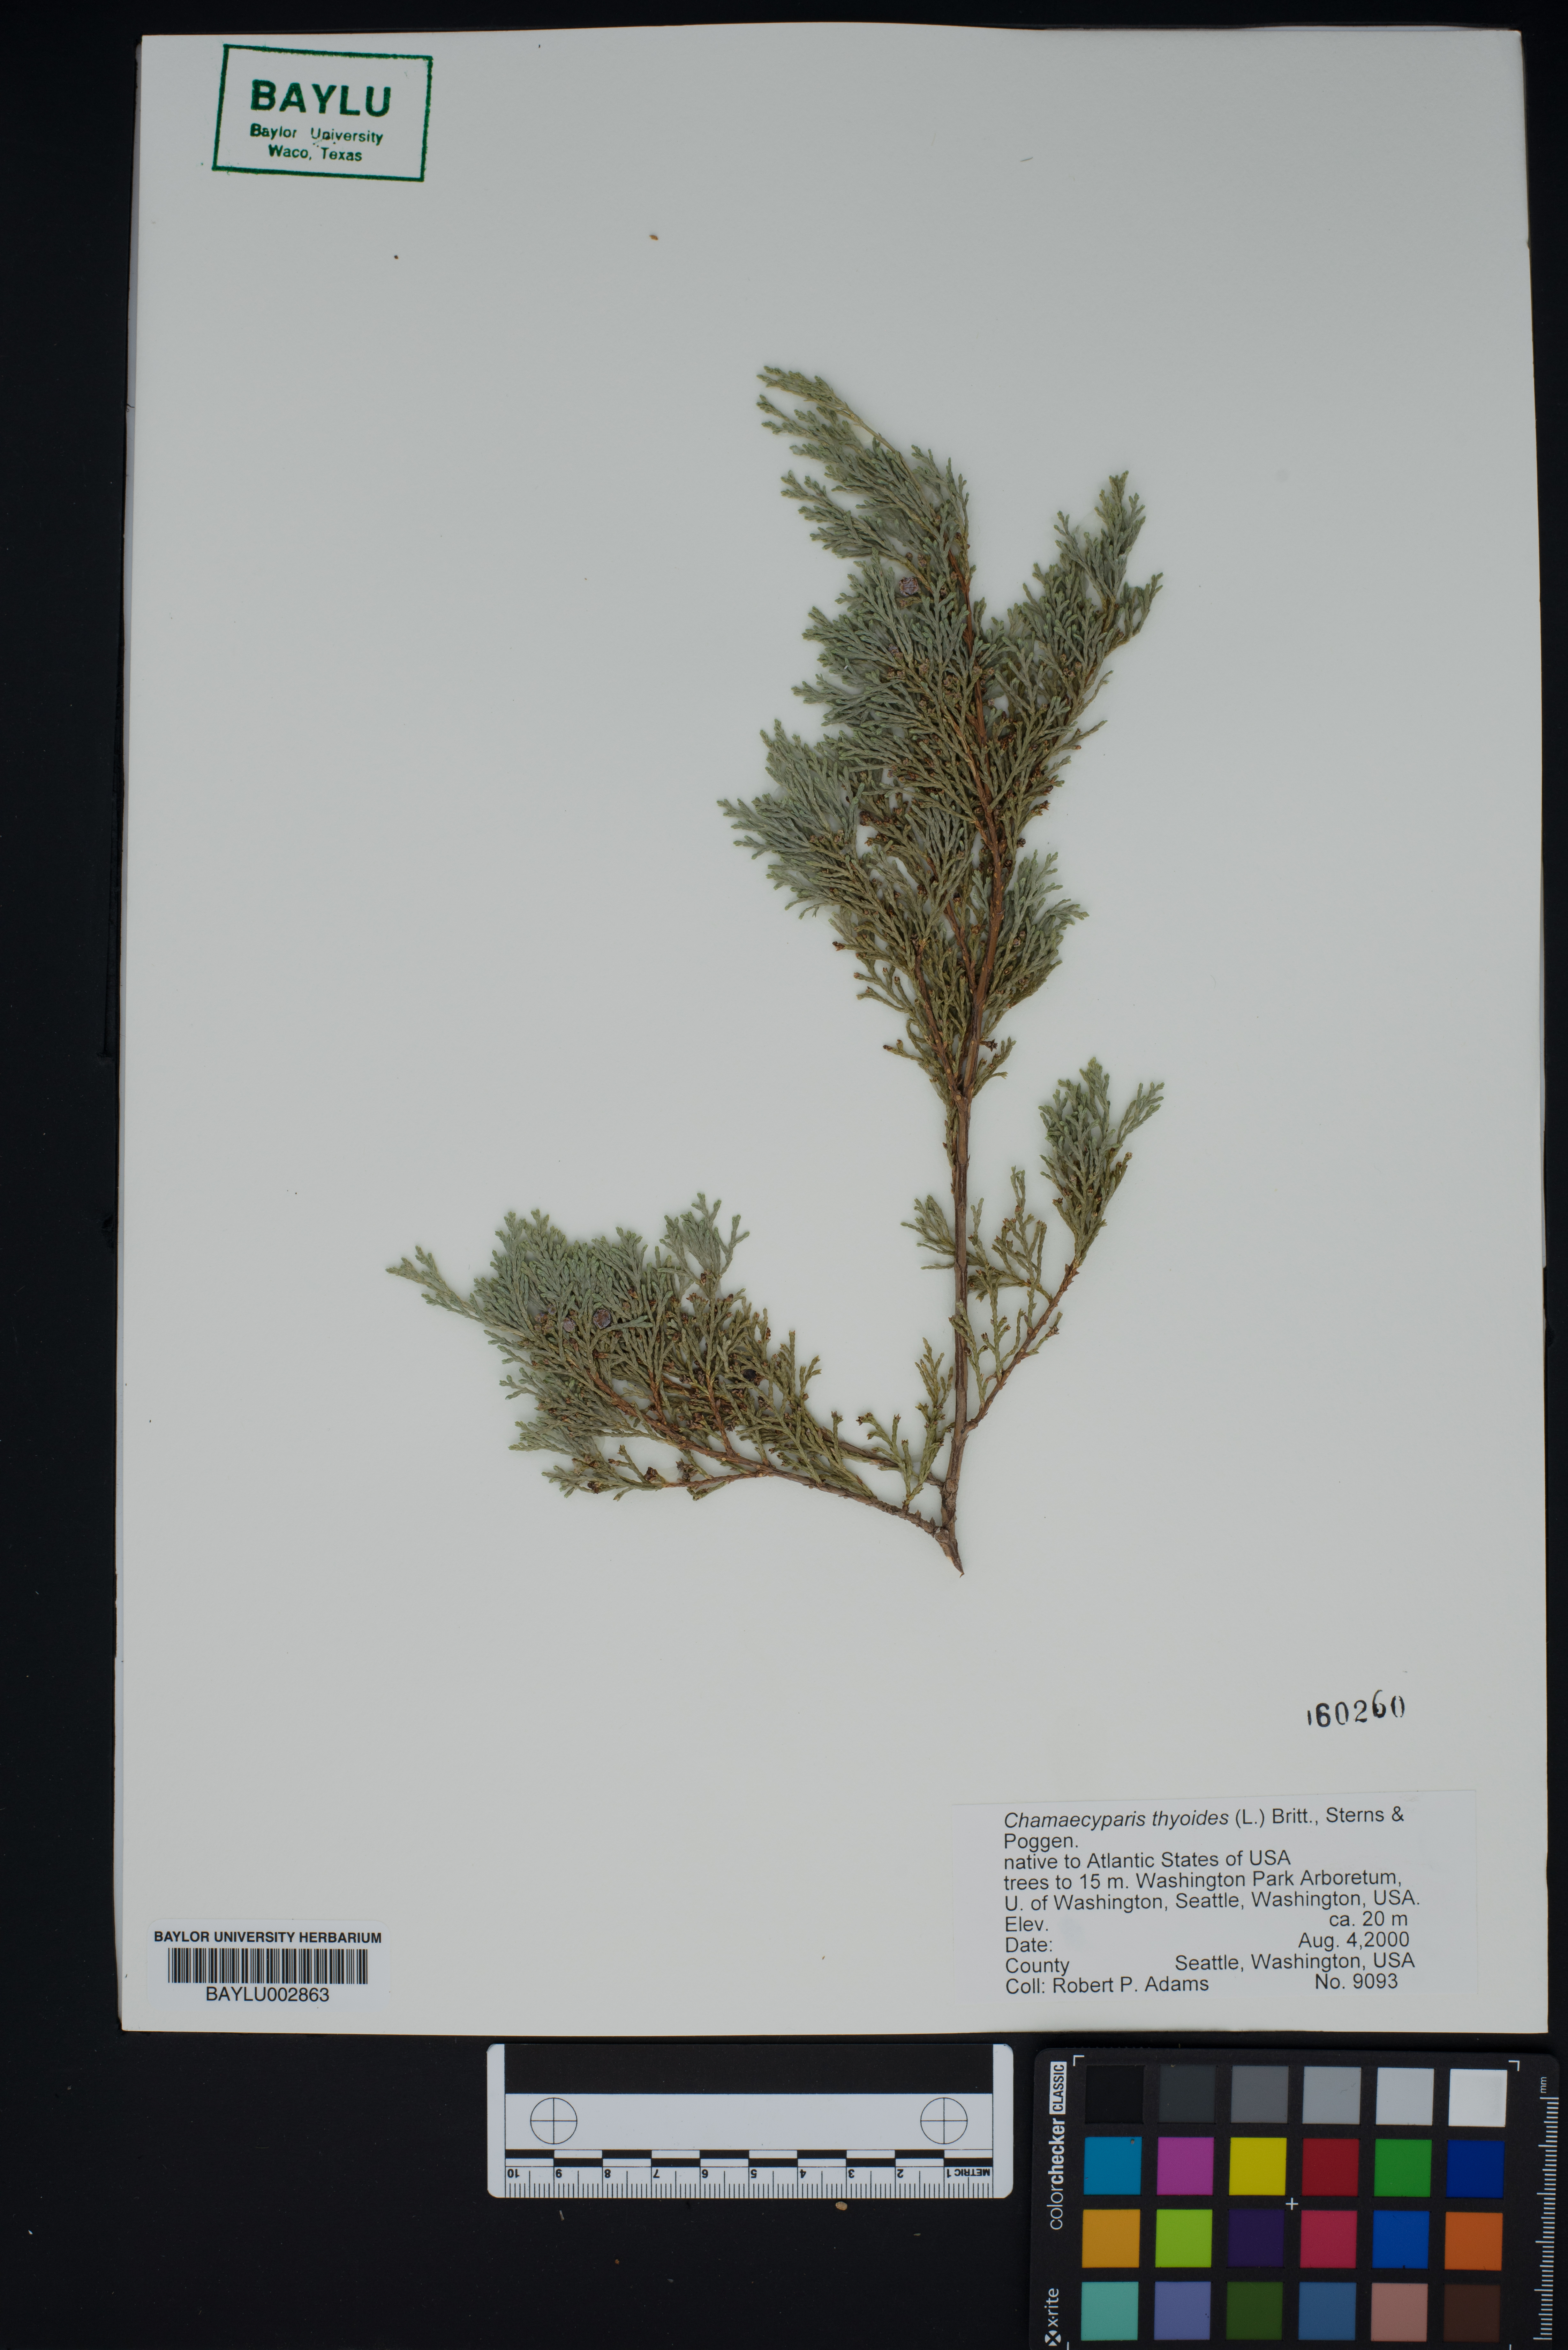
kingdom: Plantae
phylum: Tracheophyta
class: Pinopsida
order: Pinales
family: Cupressaceae
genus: Chamaecyparis
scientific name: Chamaecyparis thyoides
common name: Atlantic white cedar
